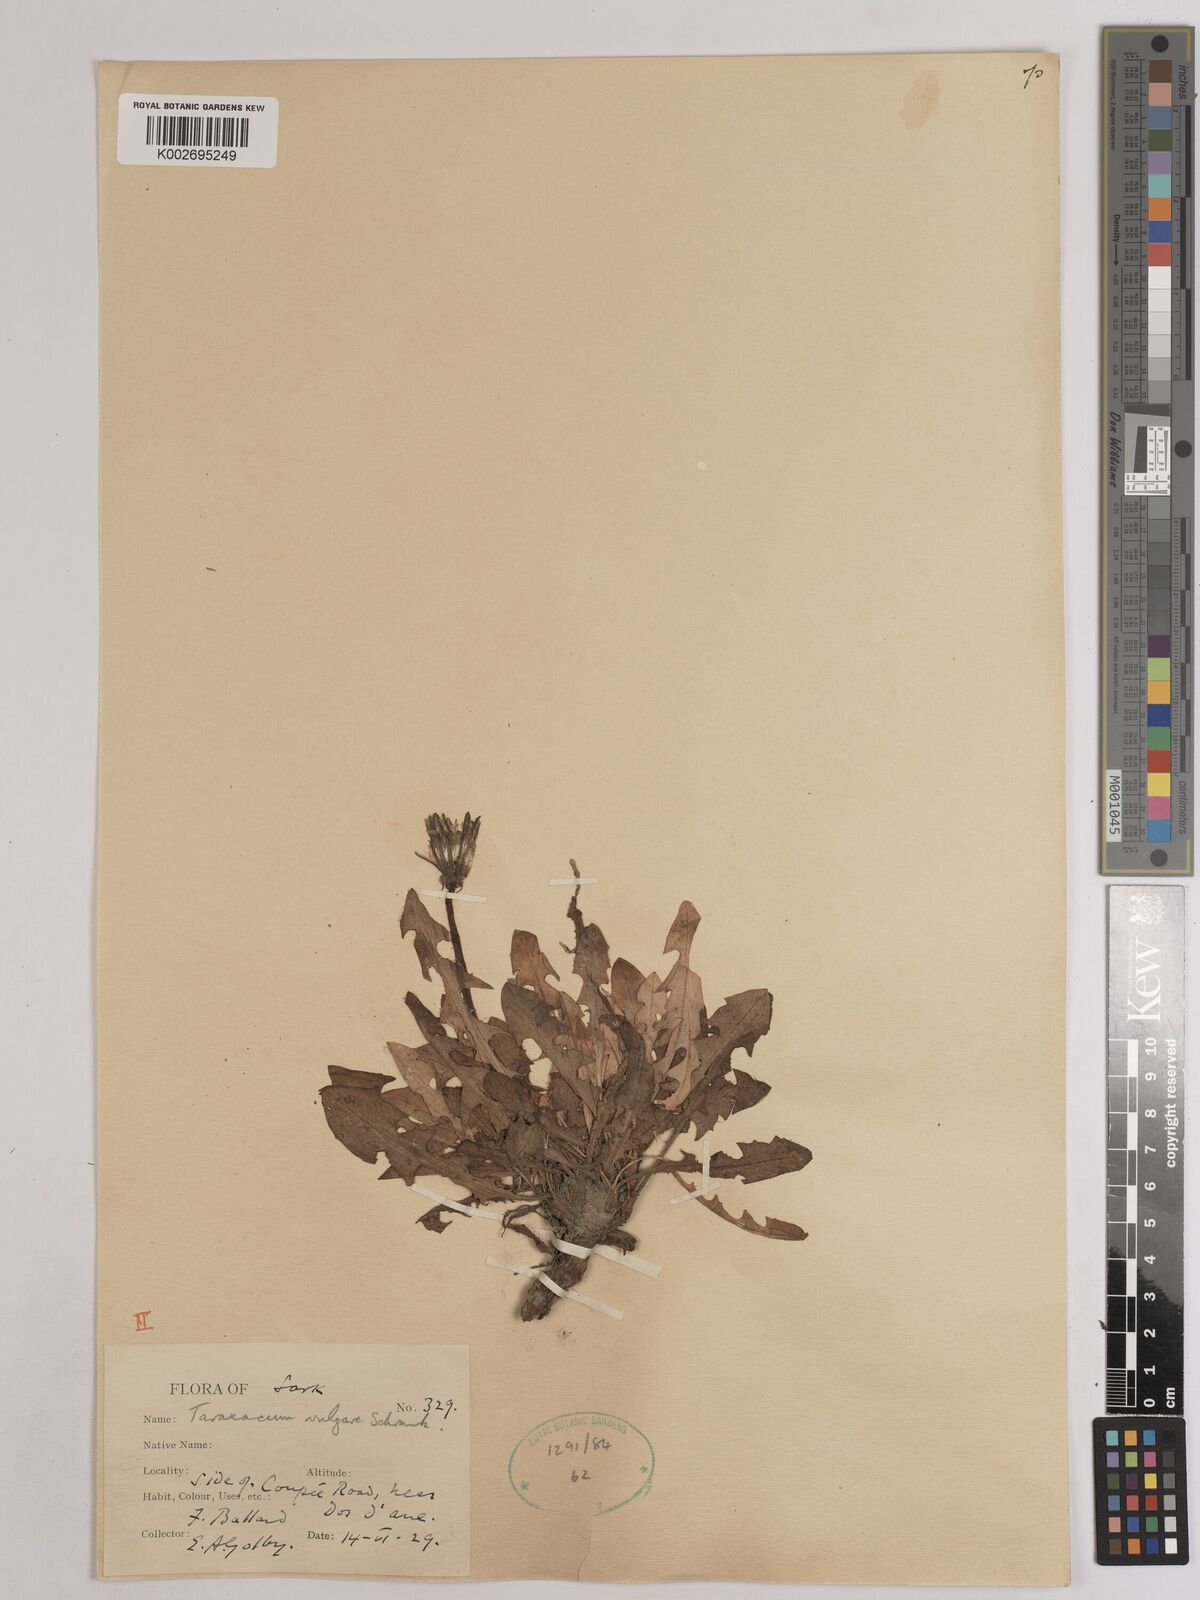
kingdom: Plantae
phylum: Tracheophyta
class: Magnoliopsida
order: Asterales
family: Asteraceae
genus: Taraxacum
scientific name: Taraxacum officinale
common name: Common dandelion
